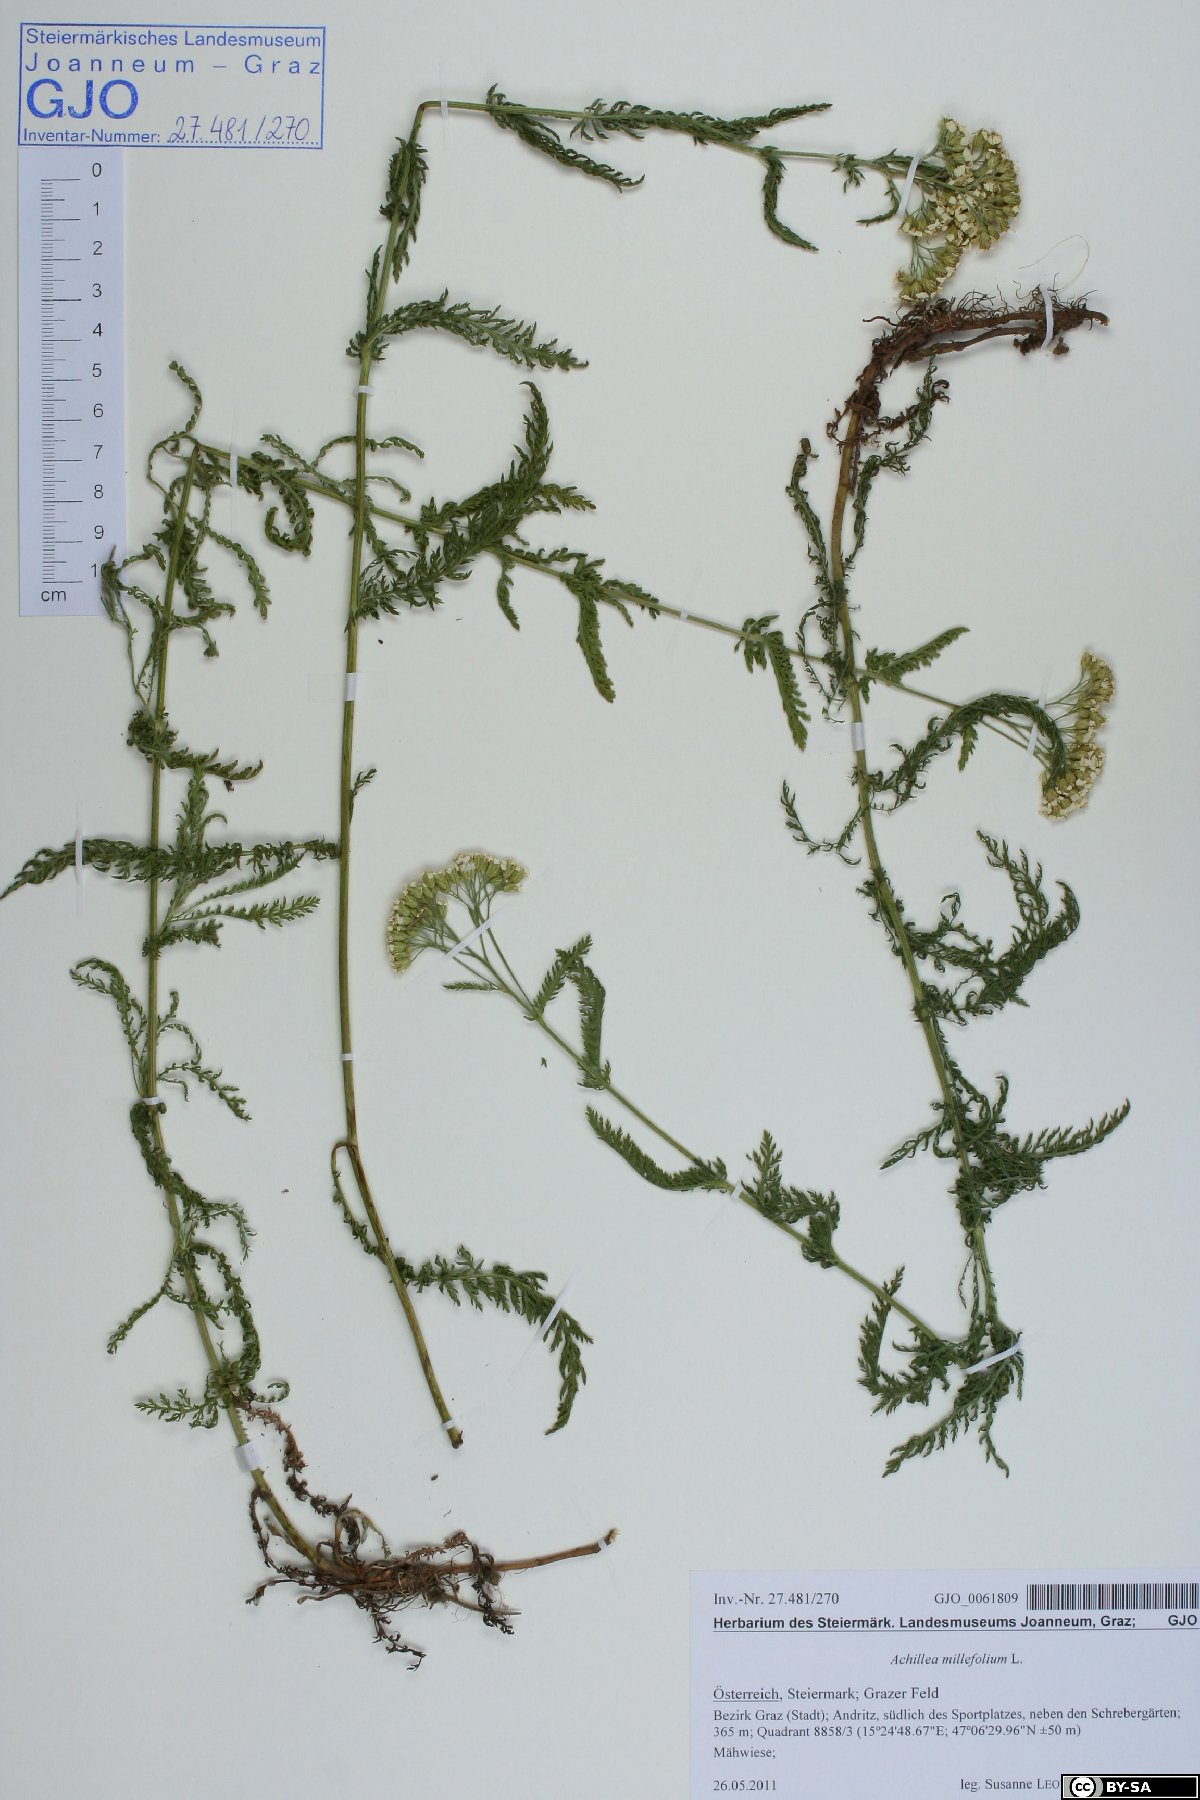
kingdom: Plantae
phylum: Tracheophyta
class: Magnoliopsida
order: Asterales
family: Asteraceae
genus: Achillea
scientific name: Achillea millefolium
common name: Yarrow
